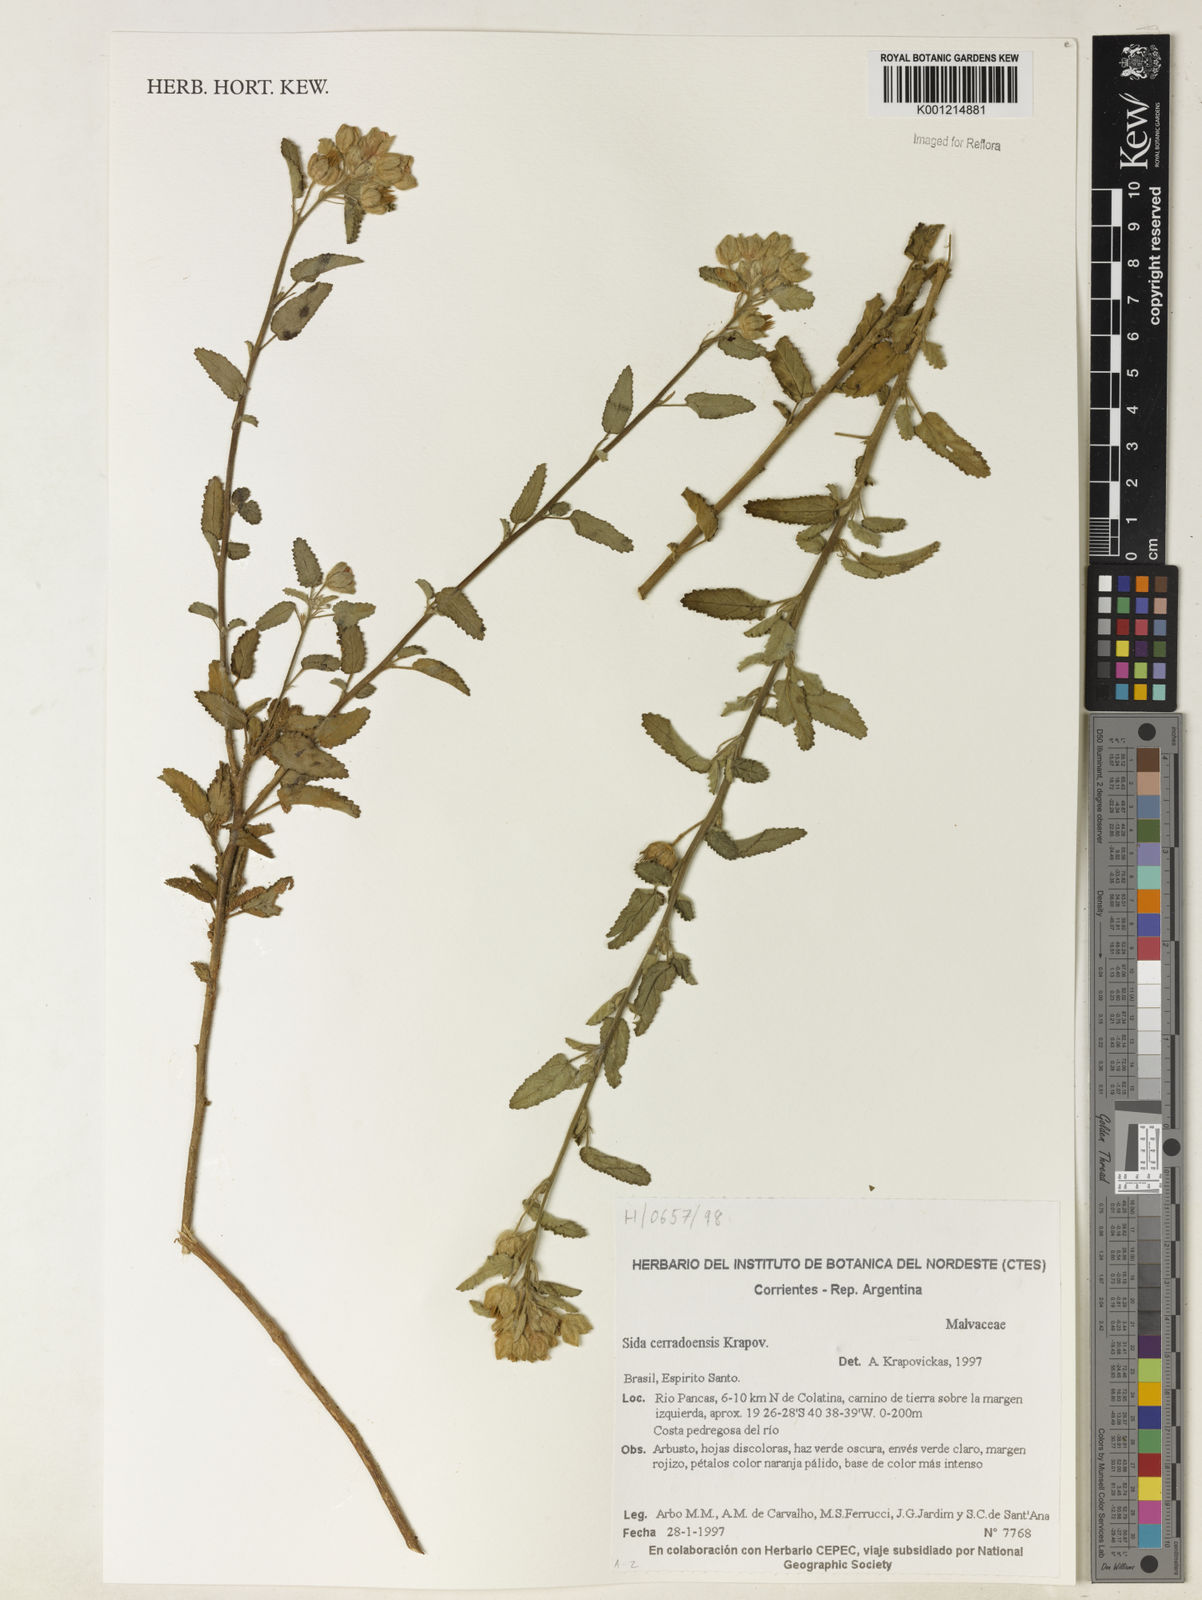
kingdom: Plantae
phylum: Tracheophyta
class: Magnoliopsida
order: Malvales
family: Malvaceae
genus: Sida
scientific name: Sida cerradoensis
